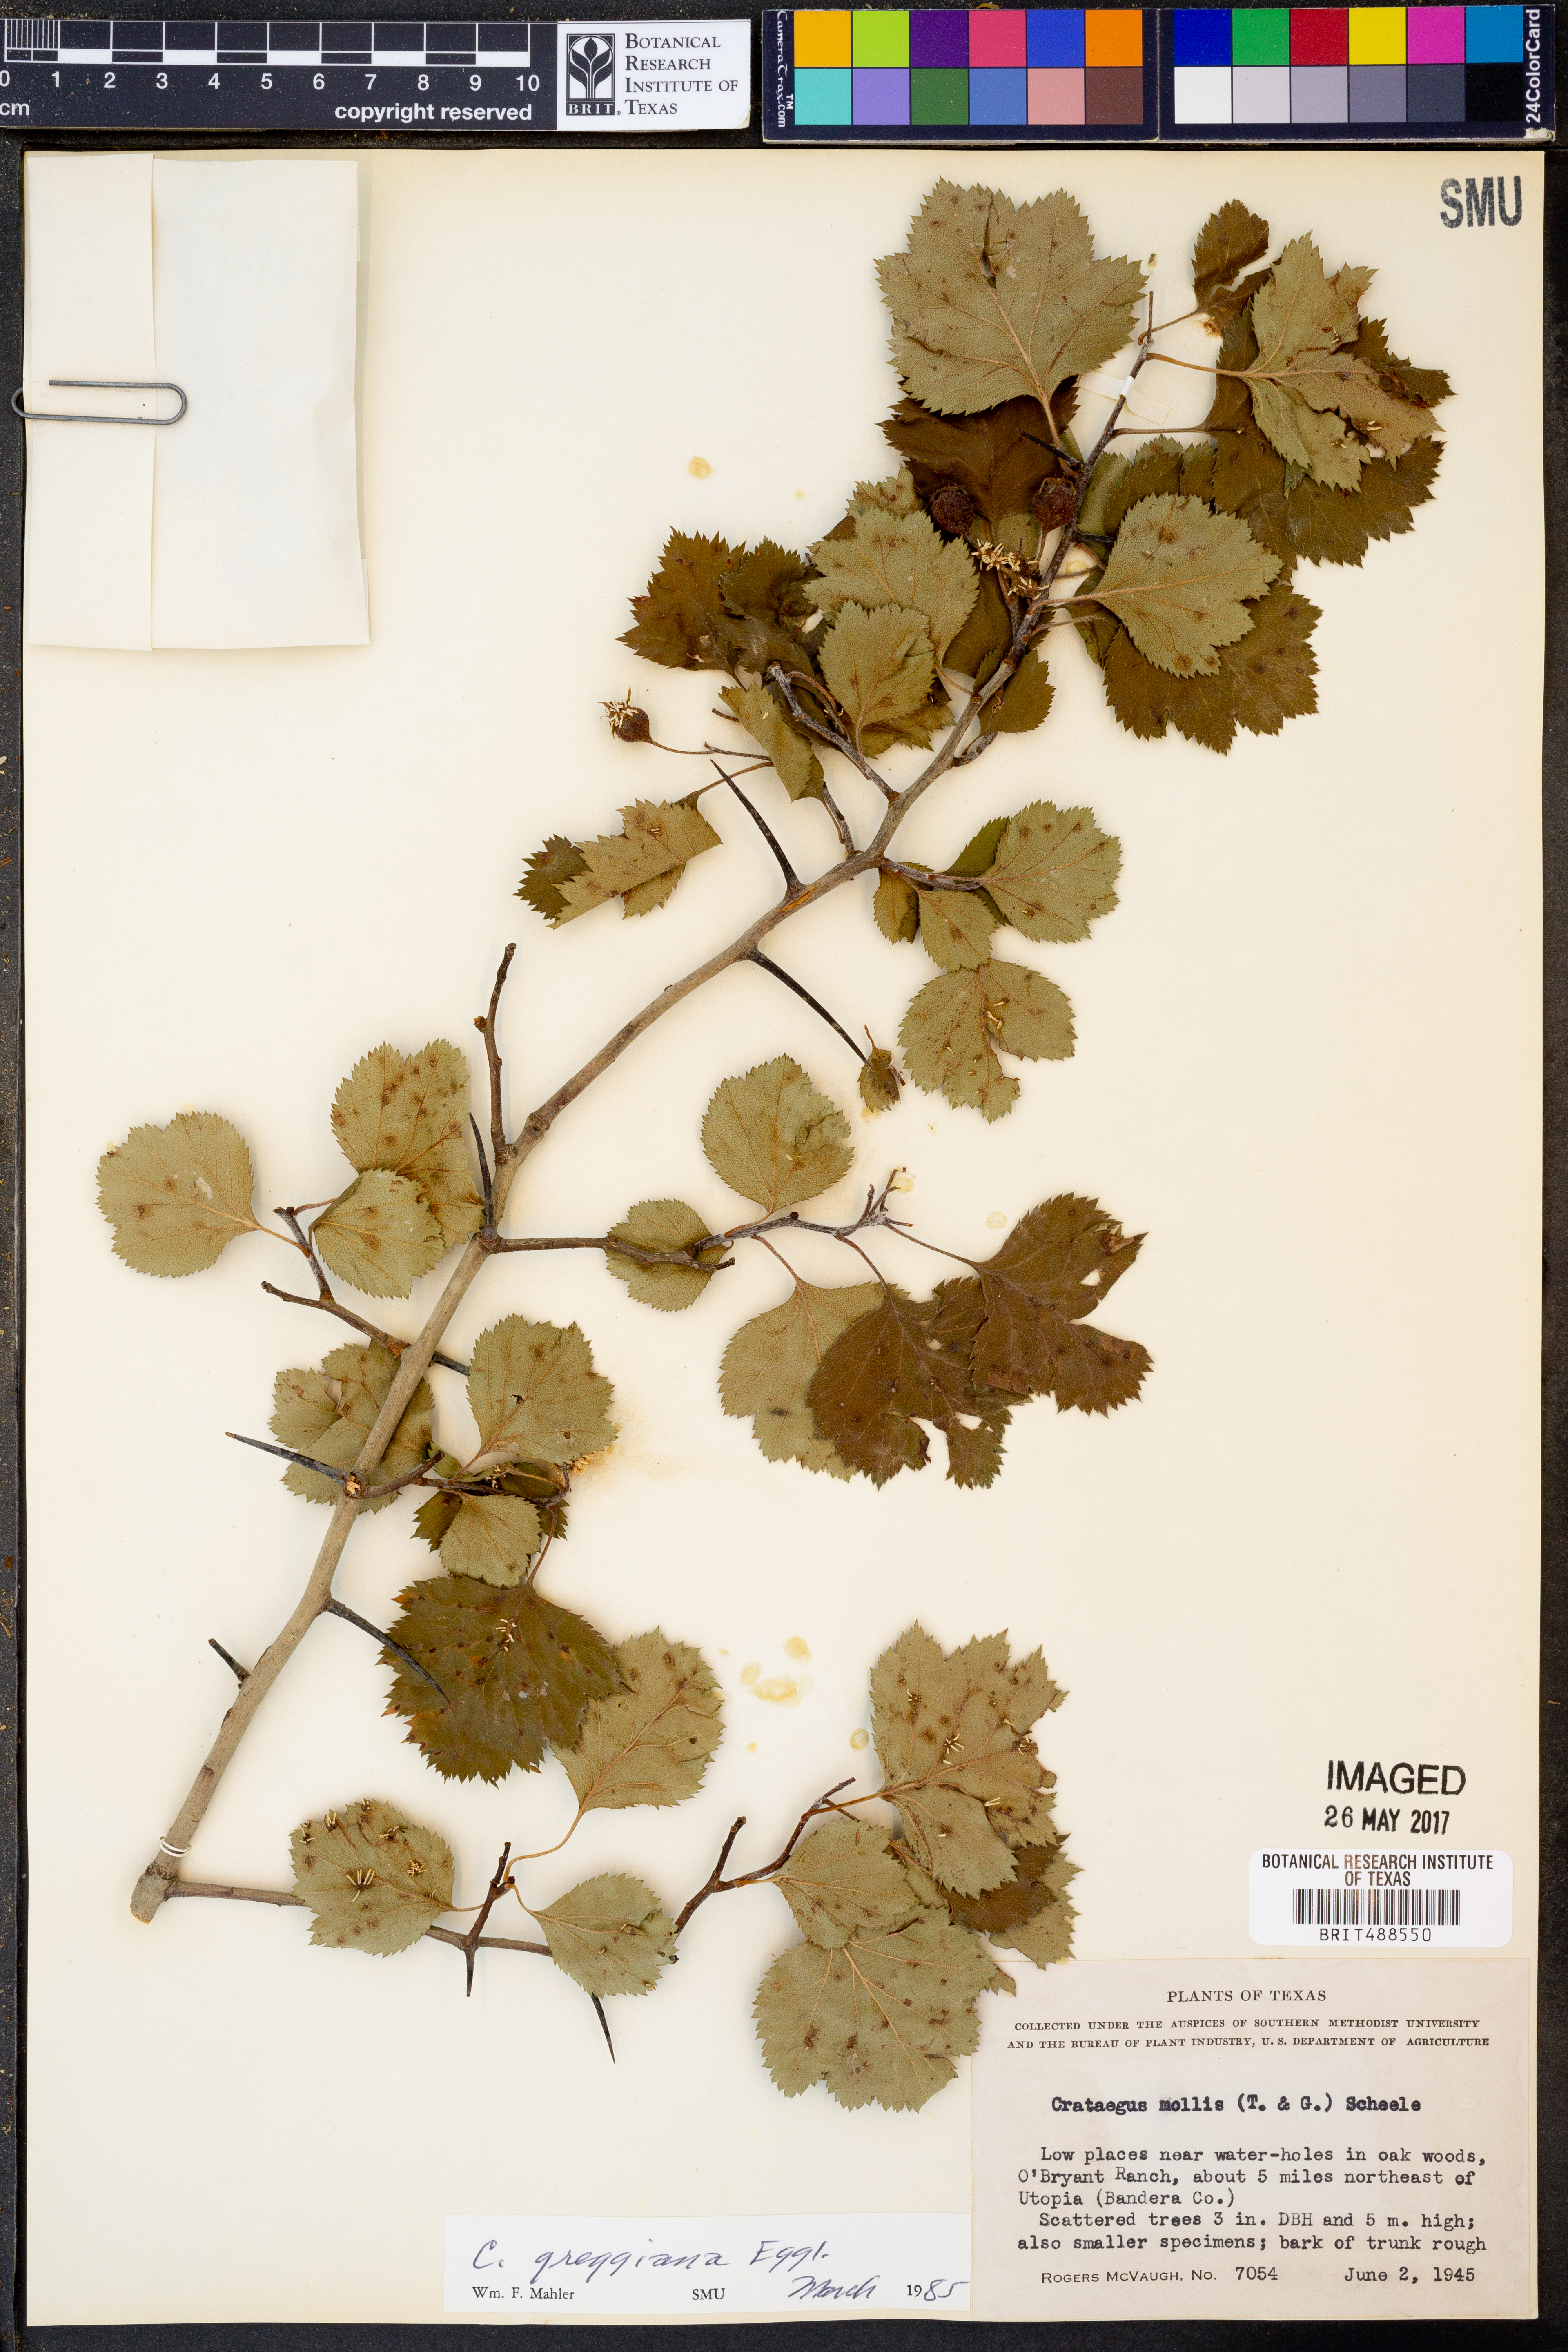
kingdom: Plantae
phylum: Tracheophyta
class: Magnoliopsida
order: Rosales
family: Rosaceae
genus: Crataegus
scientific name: Crataegus greggiana
